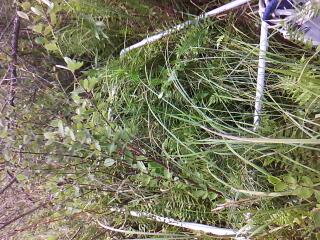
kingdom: Plantae
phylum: Tracheophyta
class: Magnoliopsida
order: Ericales
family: Primulaceae
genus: Lysimachia
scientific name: Lysimachia thyrsiflora
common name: Tufted loosestrife
